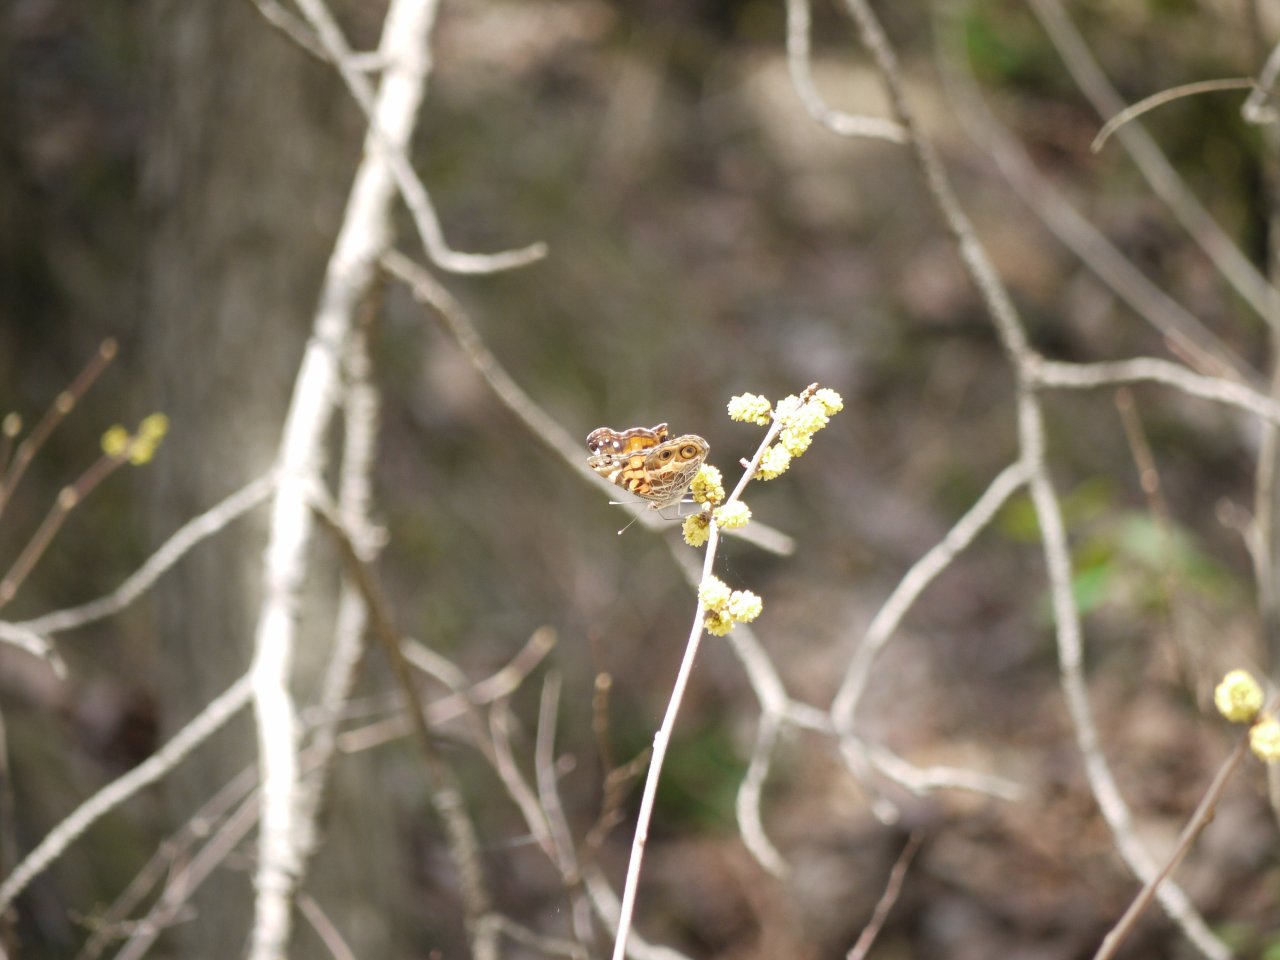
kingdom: Animalia
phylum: Arthropoda
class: Insecta
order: Lepidoptera
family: Nymphalidae
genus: Vanessa
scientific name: Vanessa virginiensis
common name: American Lady
